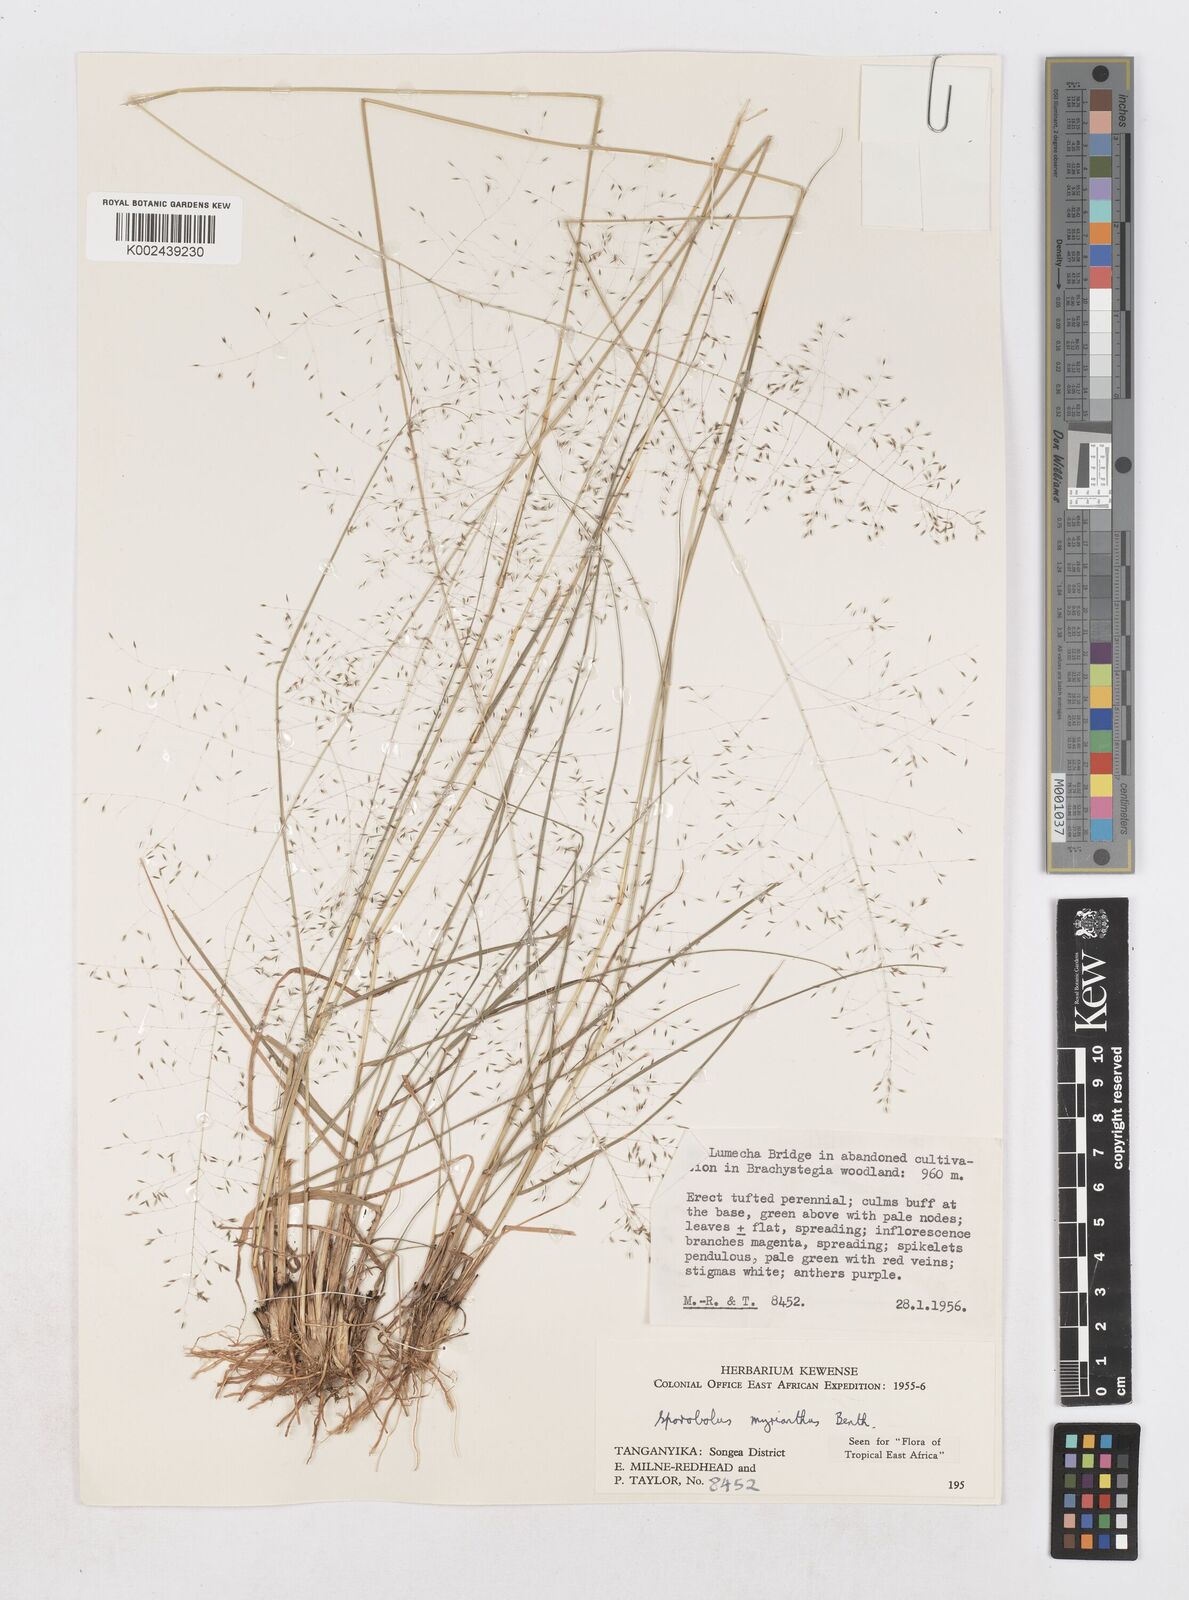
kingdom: Plantae
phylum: Tracheophyta
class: Liliopsida
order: Poales
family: Poaceae
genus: Sporobolus
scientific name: Sporobolus myrianthus
